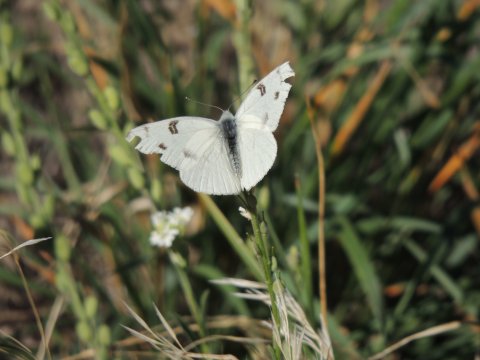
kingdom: Animalia
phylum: Arthropoda
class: Insecta
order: Lepidoptera
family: Pieridae
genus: Pontia
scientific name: Pontia beckerii
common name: Becker's White
